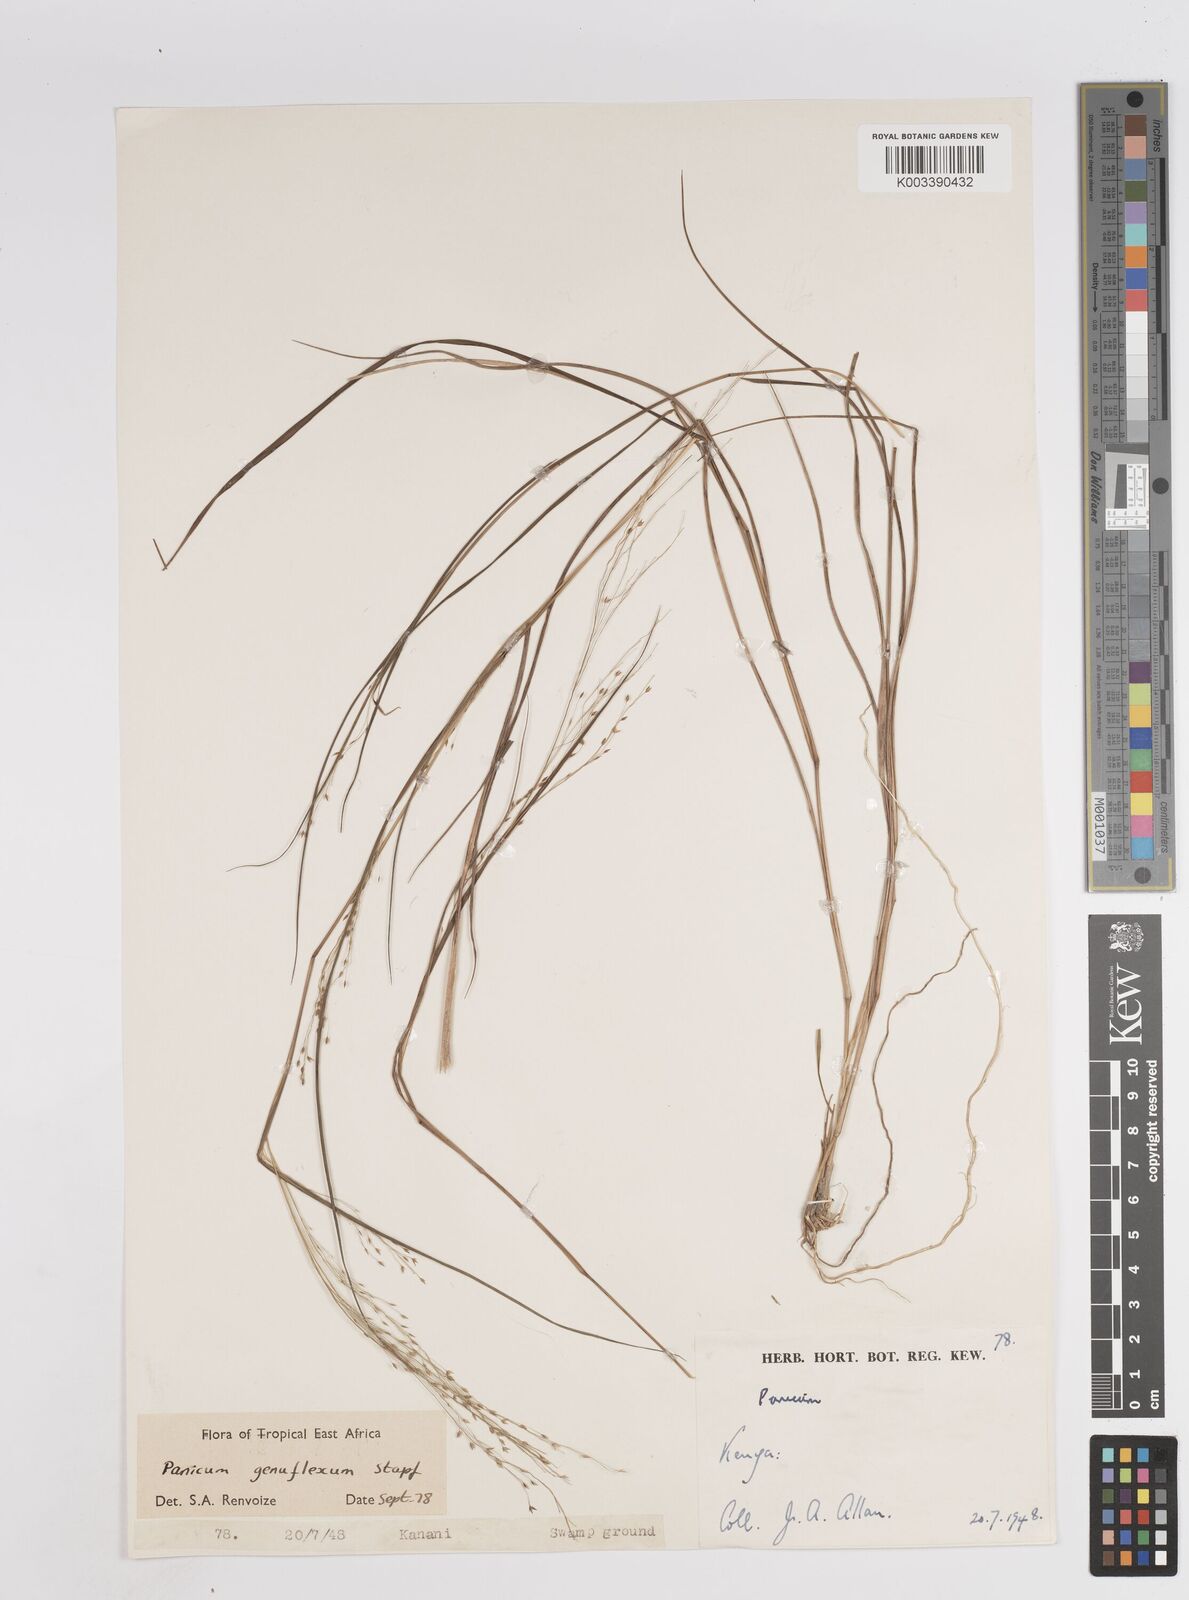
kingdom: Plantae
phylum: Tracheophyta
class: Liliopsida
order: Poales
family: Poaceae
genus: Panicum
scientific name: Panicum genuflexum
